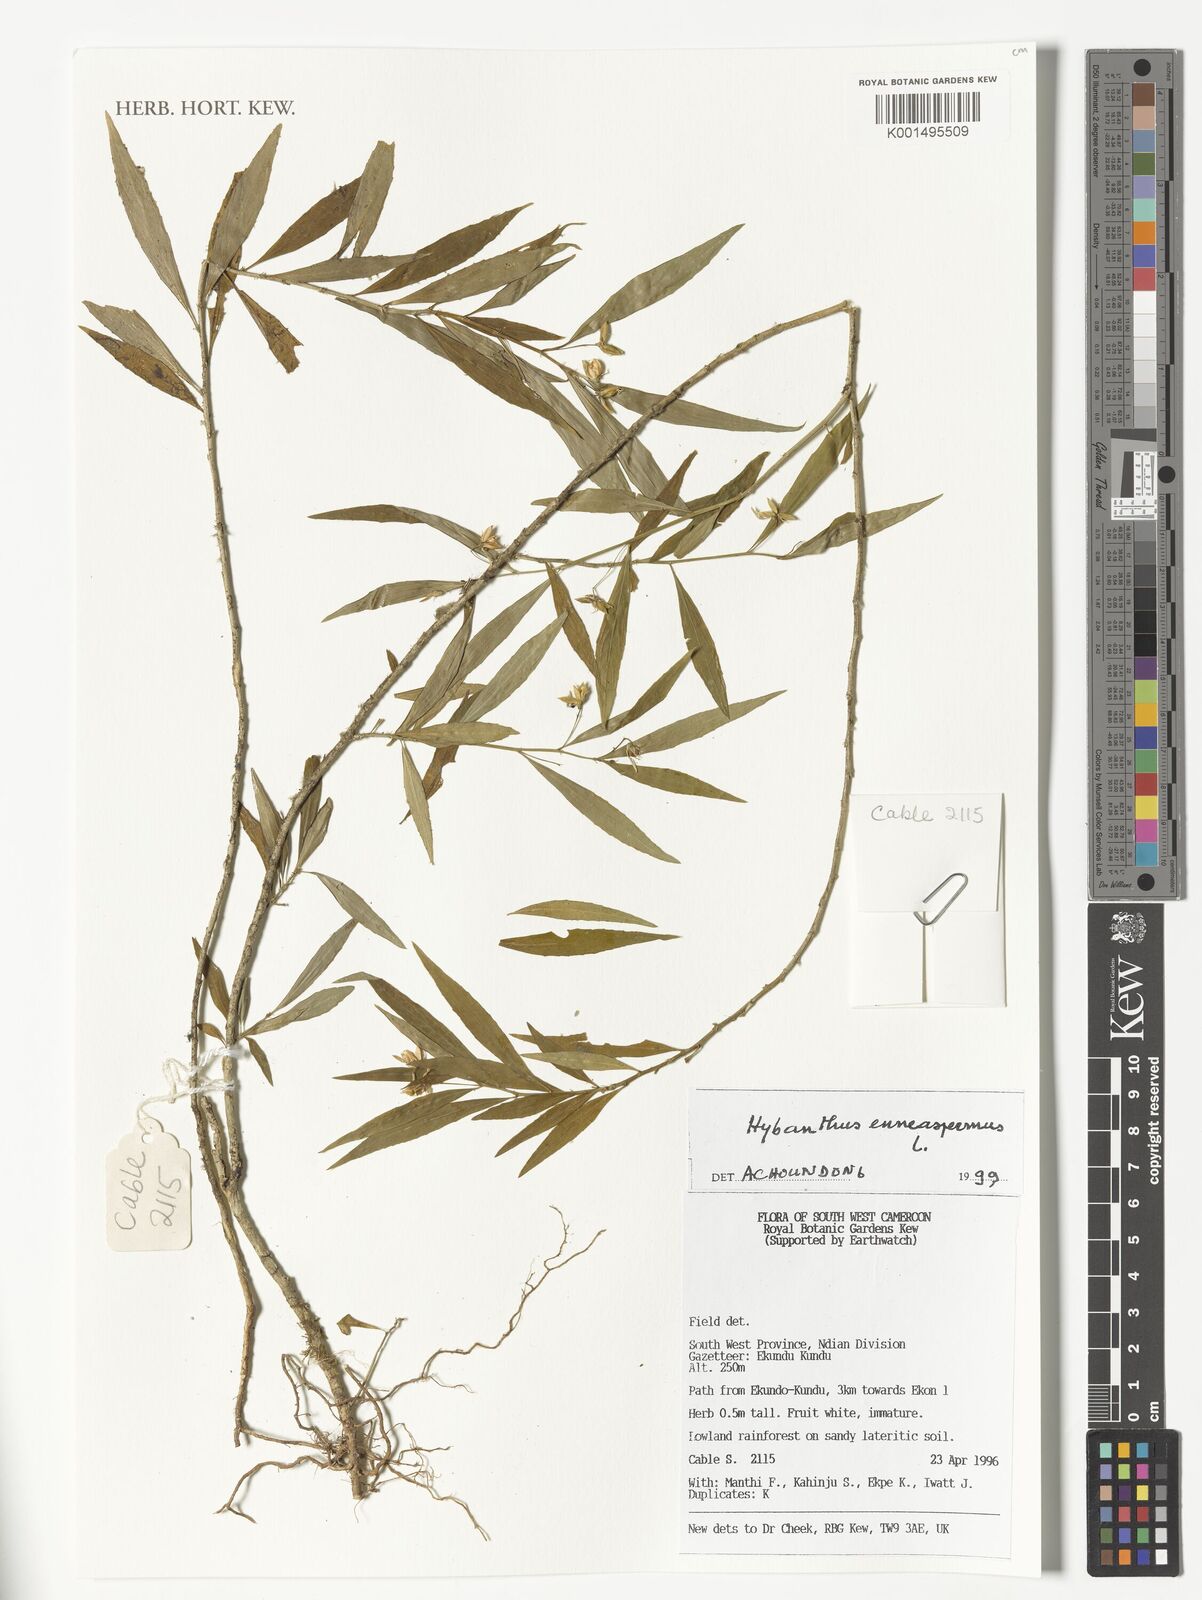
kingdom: Plantae
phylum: Tracheophyta
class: Magnoliopsida
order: Malpighiales
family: Violaceae
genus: Pigea
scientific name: Pigea enneasperma
